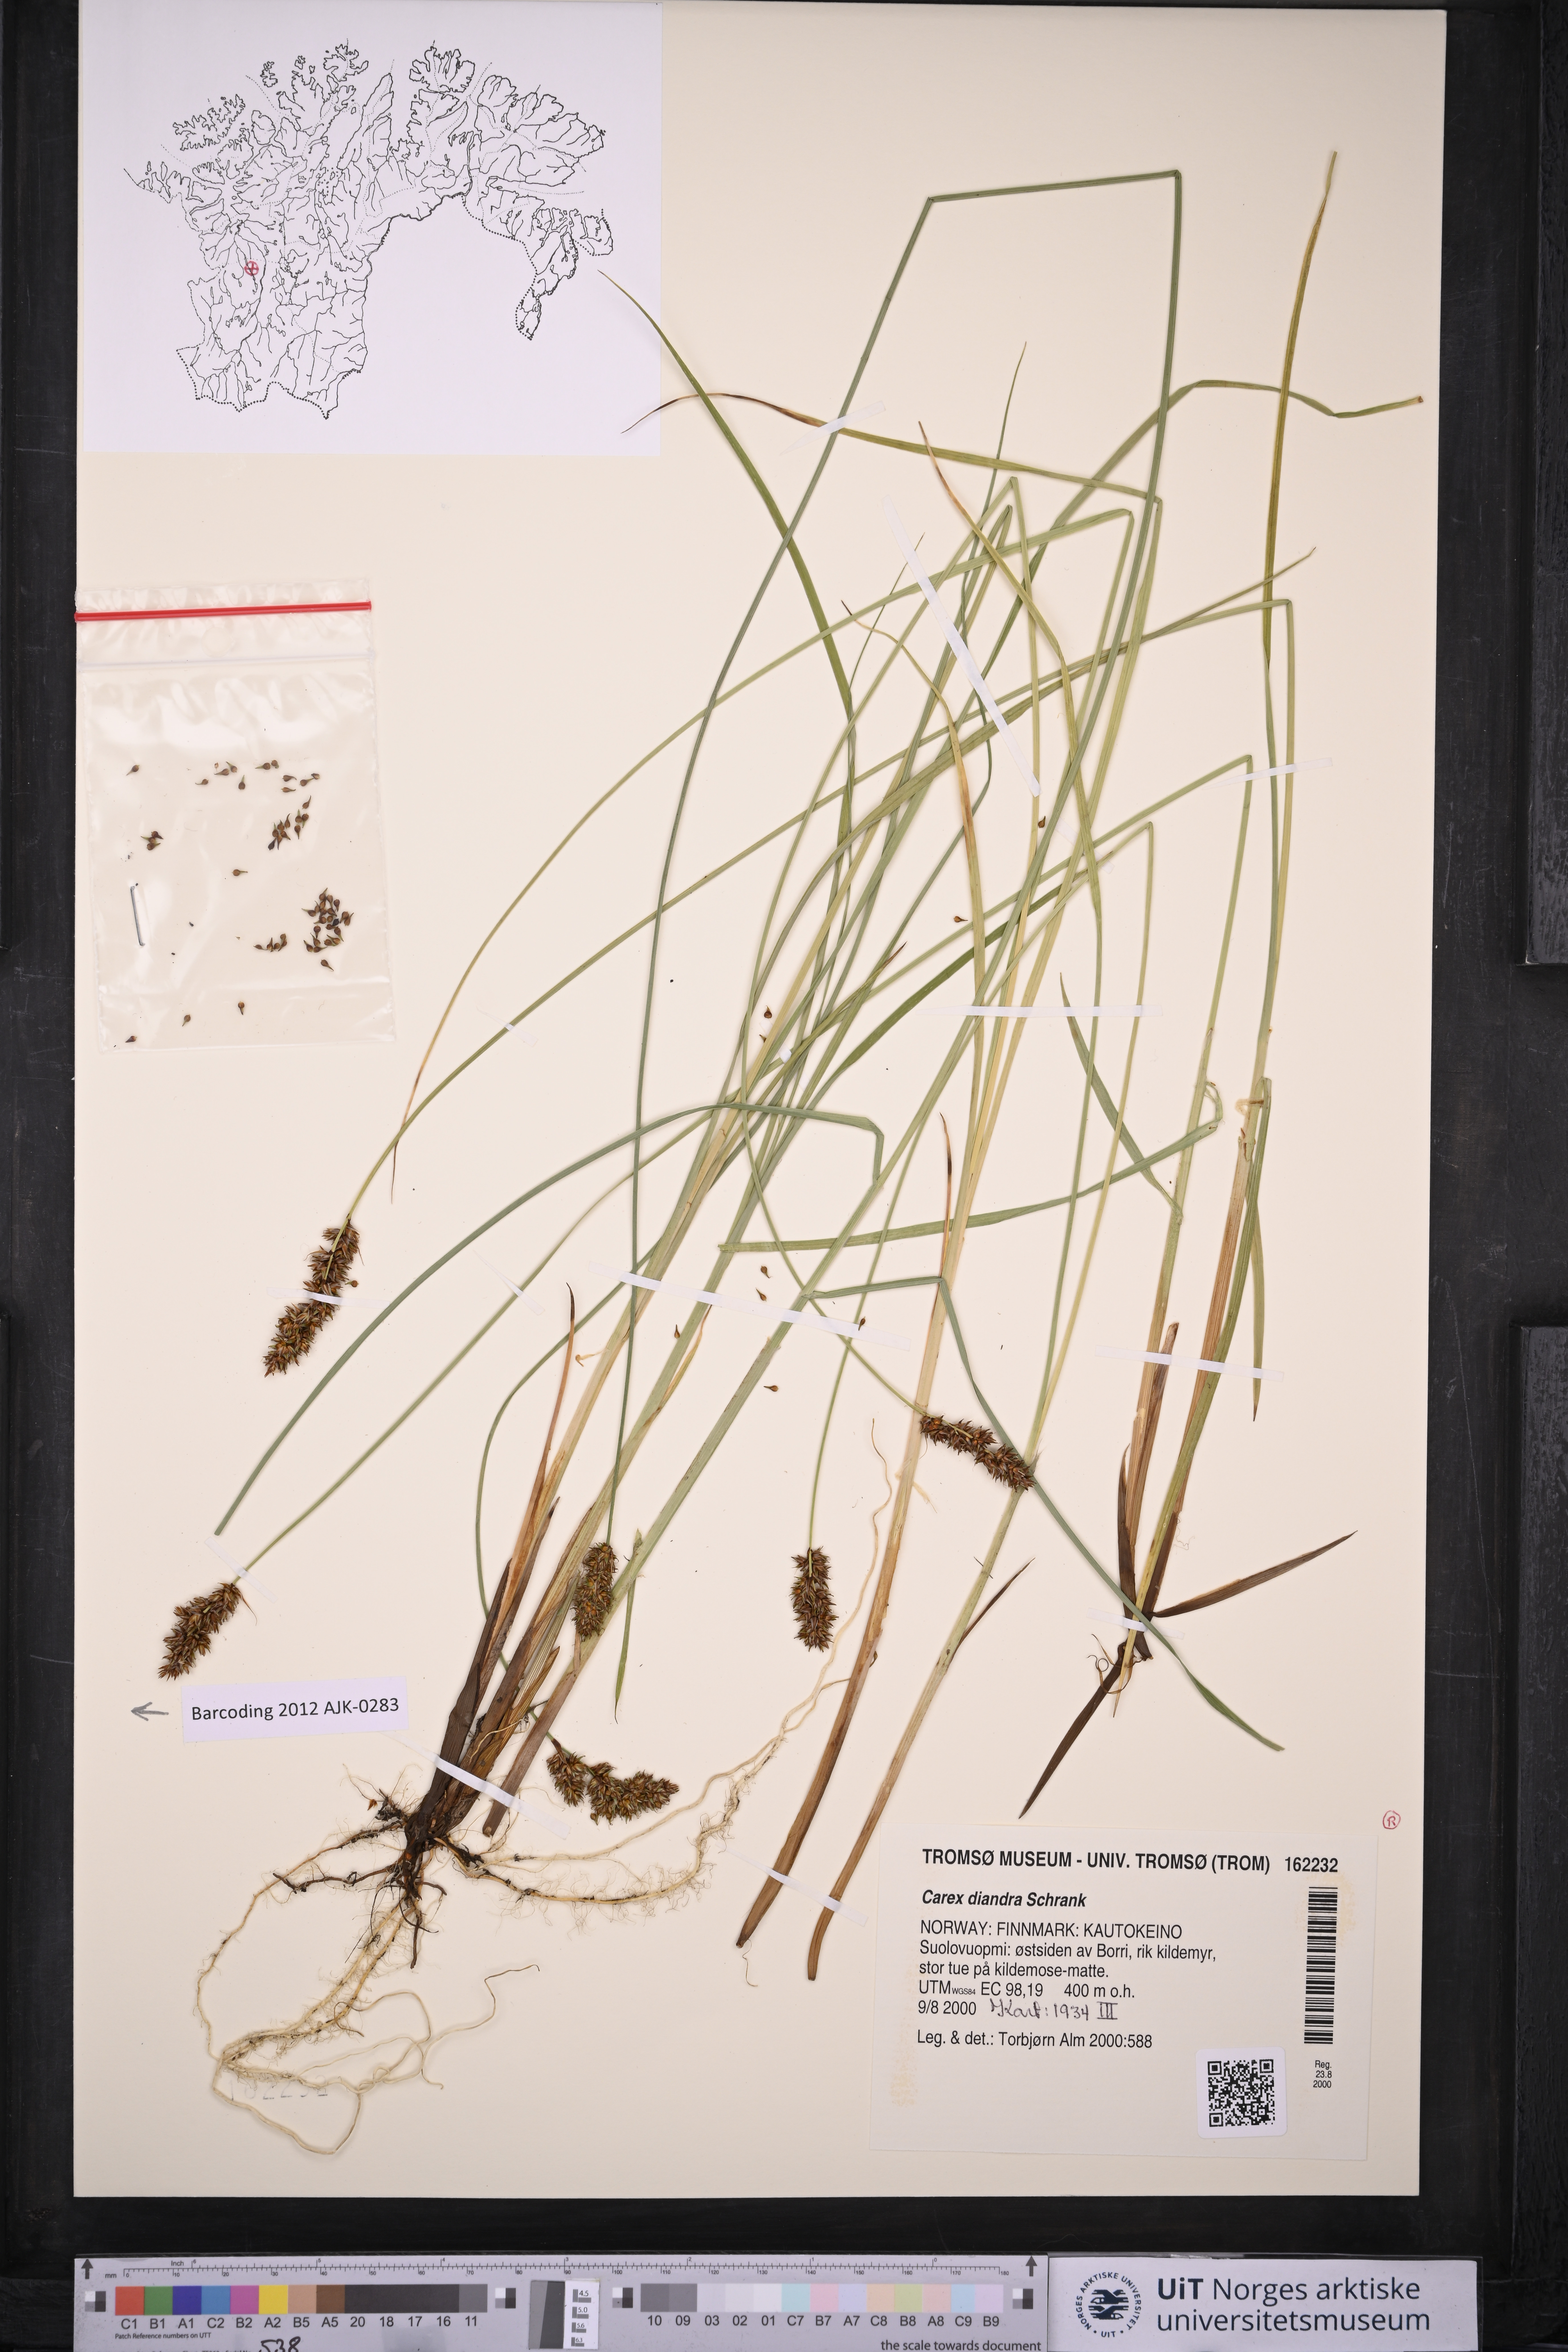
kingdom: Plantae
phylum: Tracheophyta
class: Liliopsida
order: Poales
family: Cyperaceae
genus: Carex
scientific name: Carex diandra
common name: Lesser tussock-sedge
